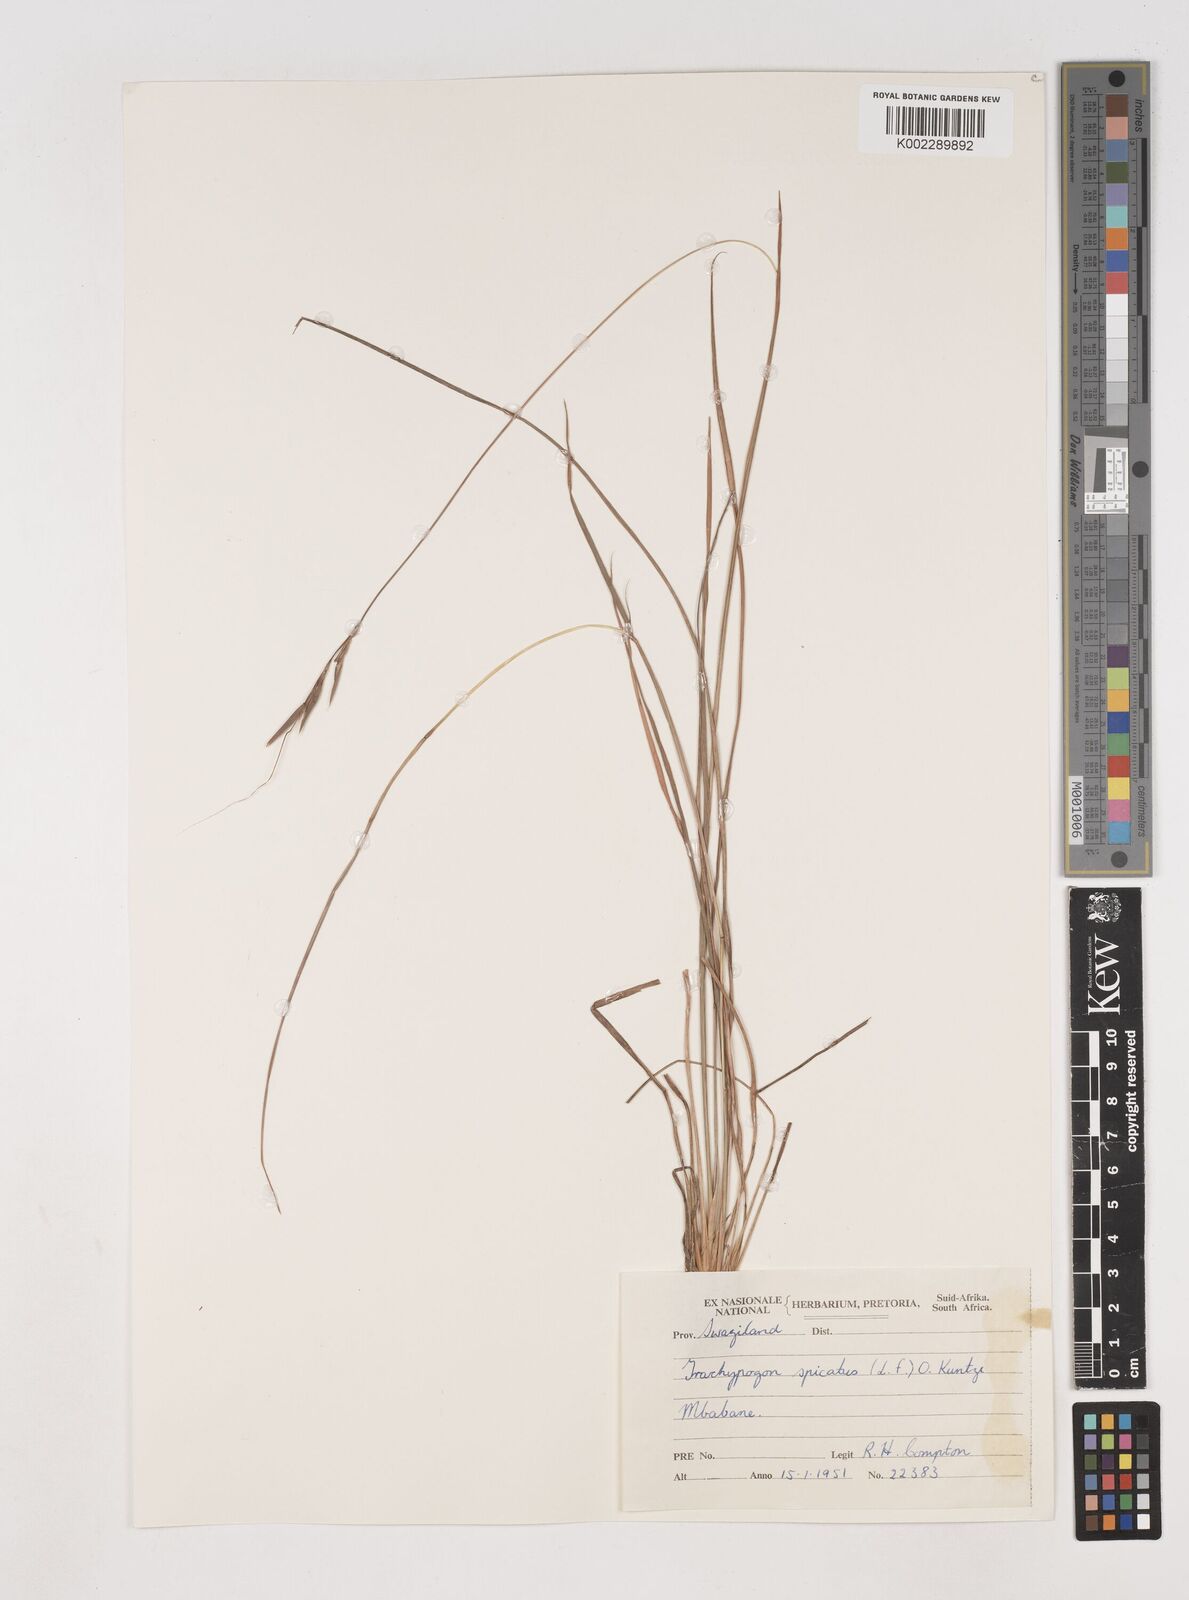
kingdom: Plantae
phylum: Tracheophyta
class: Liliopsida
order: Poales
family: Poaceae
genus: Diheteropogon
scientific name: Diheteropogon amplectens
